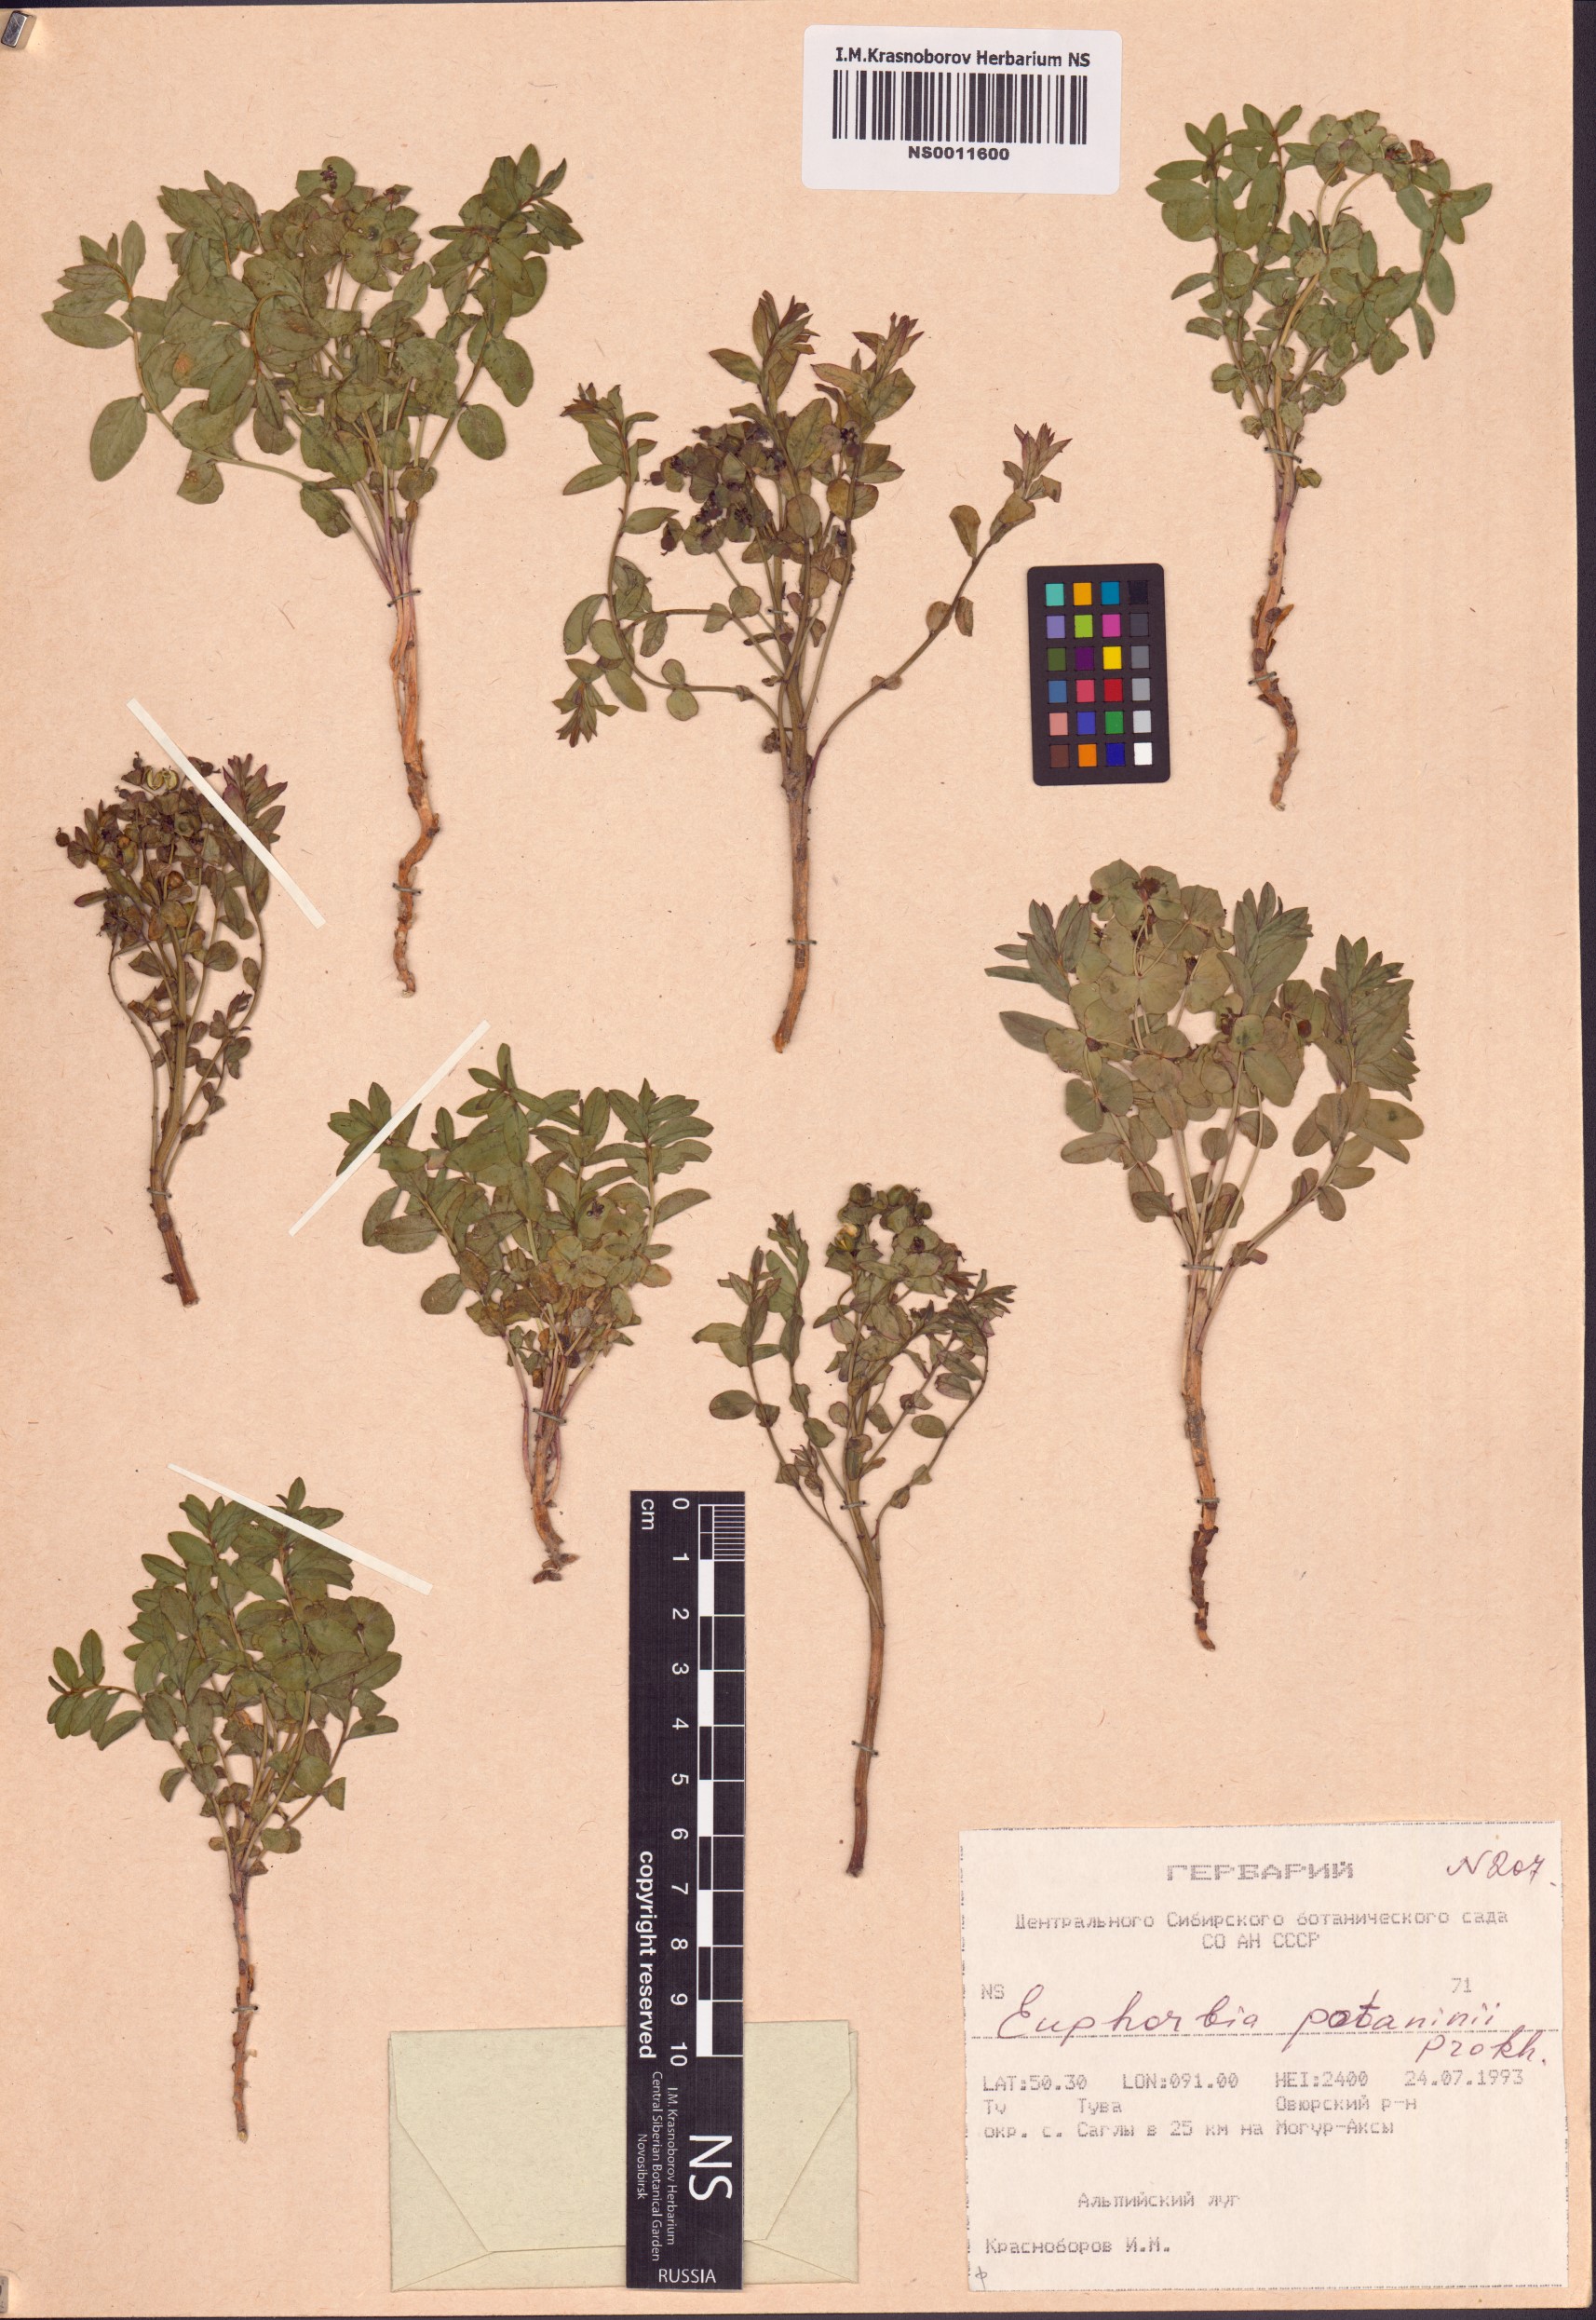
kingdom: Plantae
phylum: Tracheophyta
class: Magnoliopsida
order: Malpighiales
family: Euphorbiaceae
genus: Euphorbia
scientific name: Euphorbia potaninii
